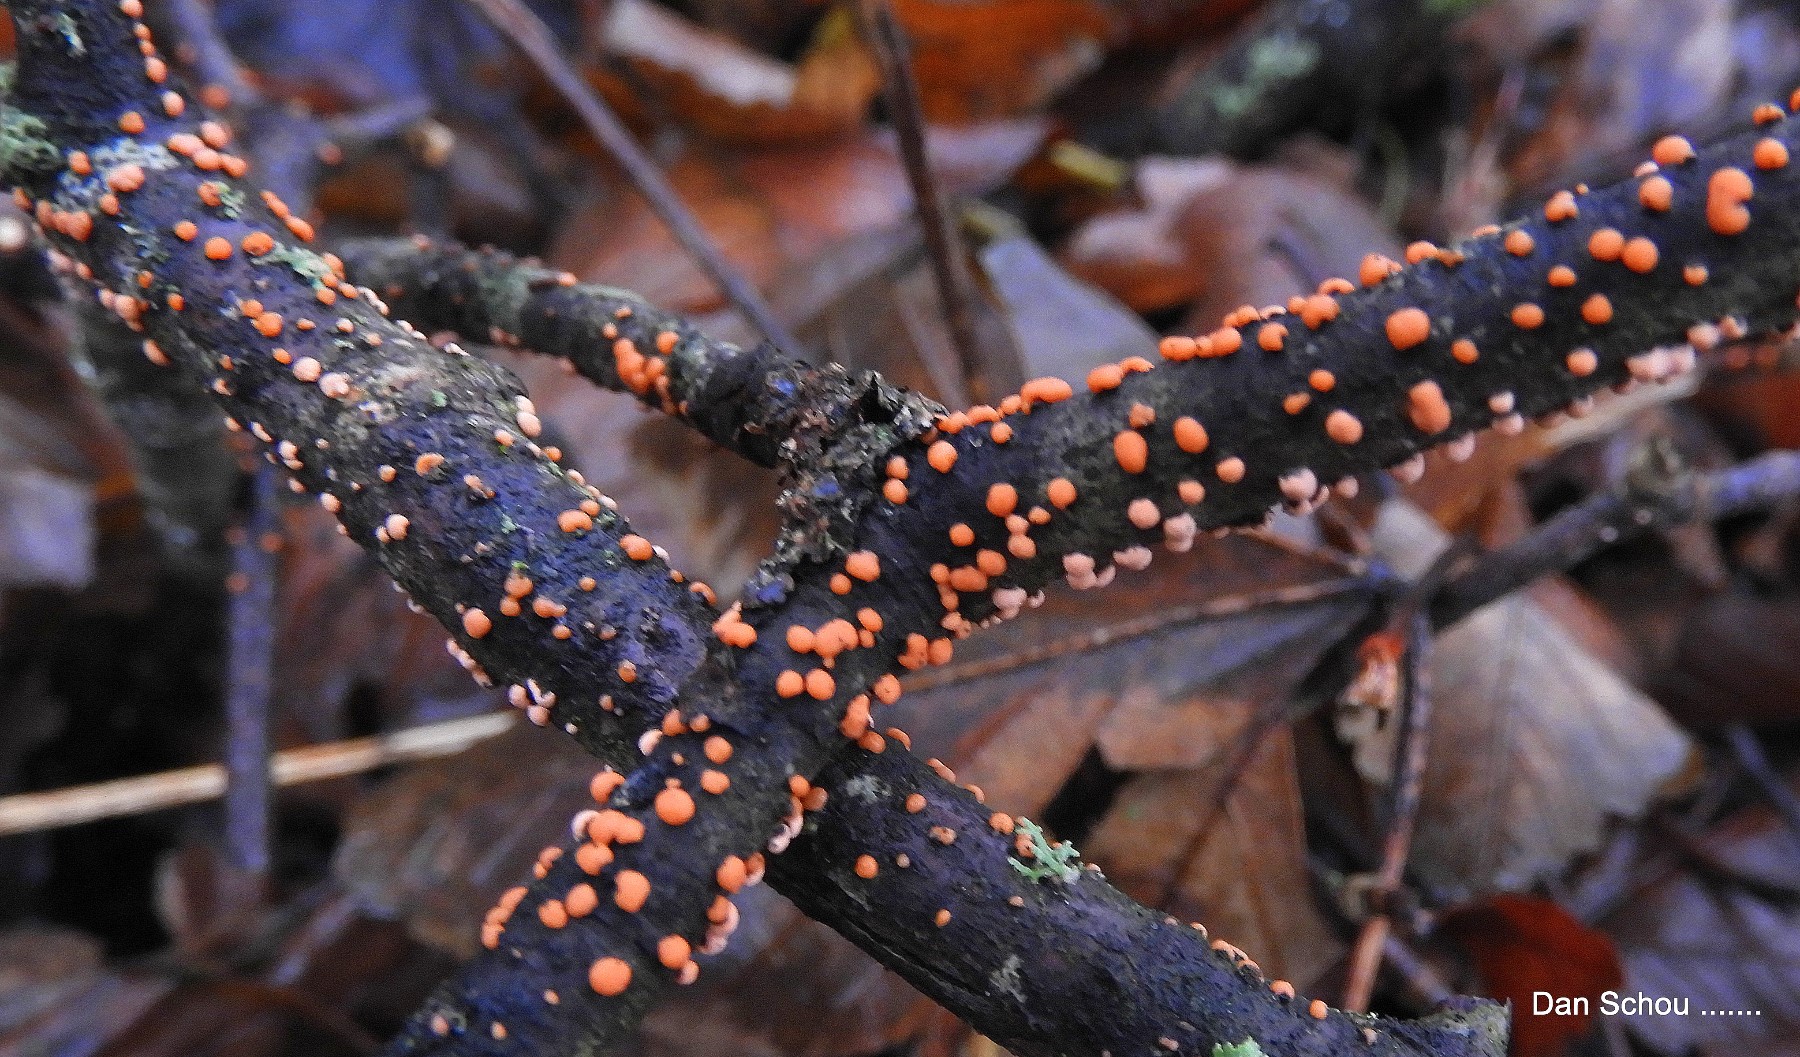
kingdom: Fungi
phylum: Ascomycota
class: Sordariomycetes
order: Hypocreales
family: Nectriaceae
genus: Nectria
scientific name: Nectria cinnabarina
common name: almindelig cinnobersvamp
